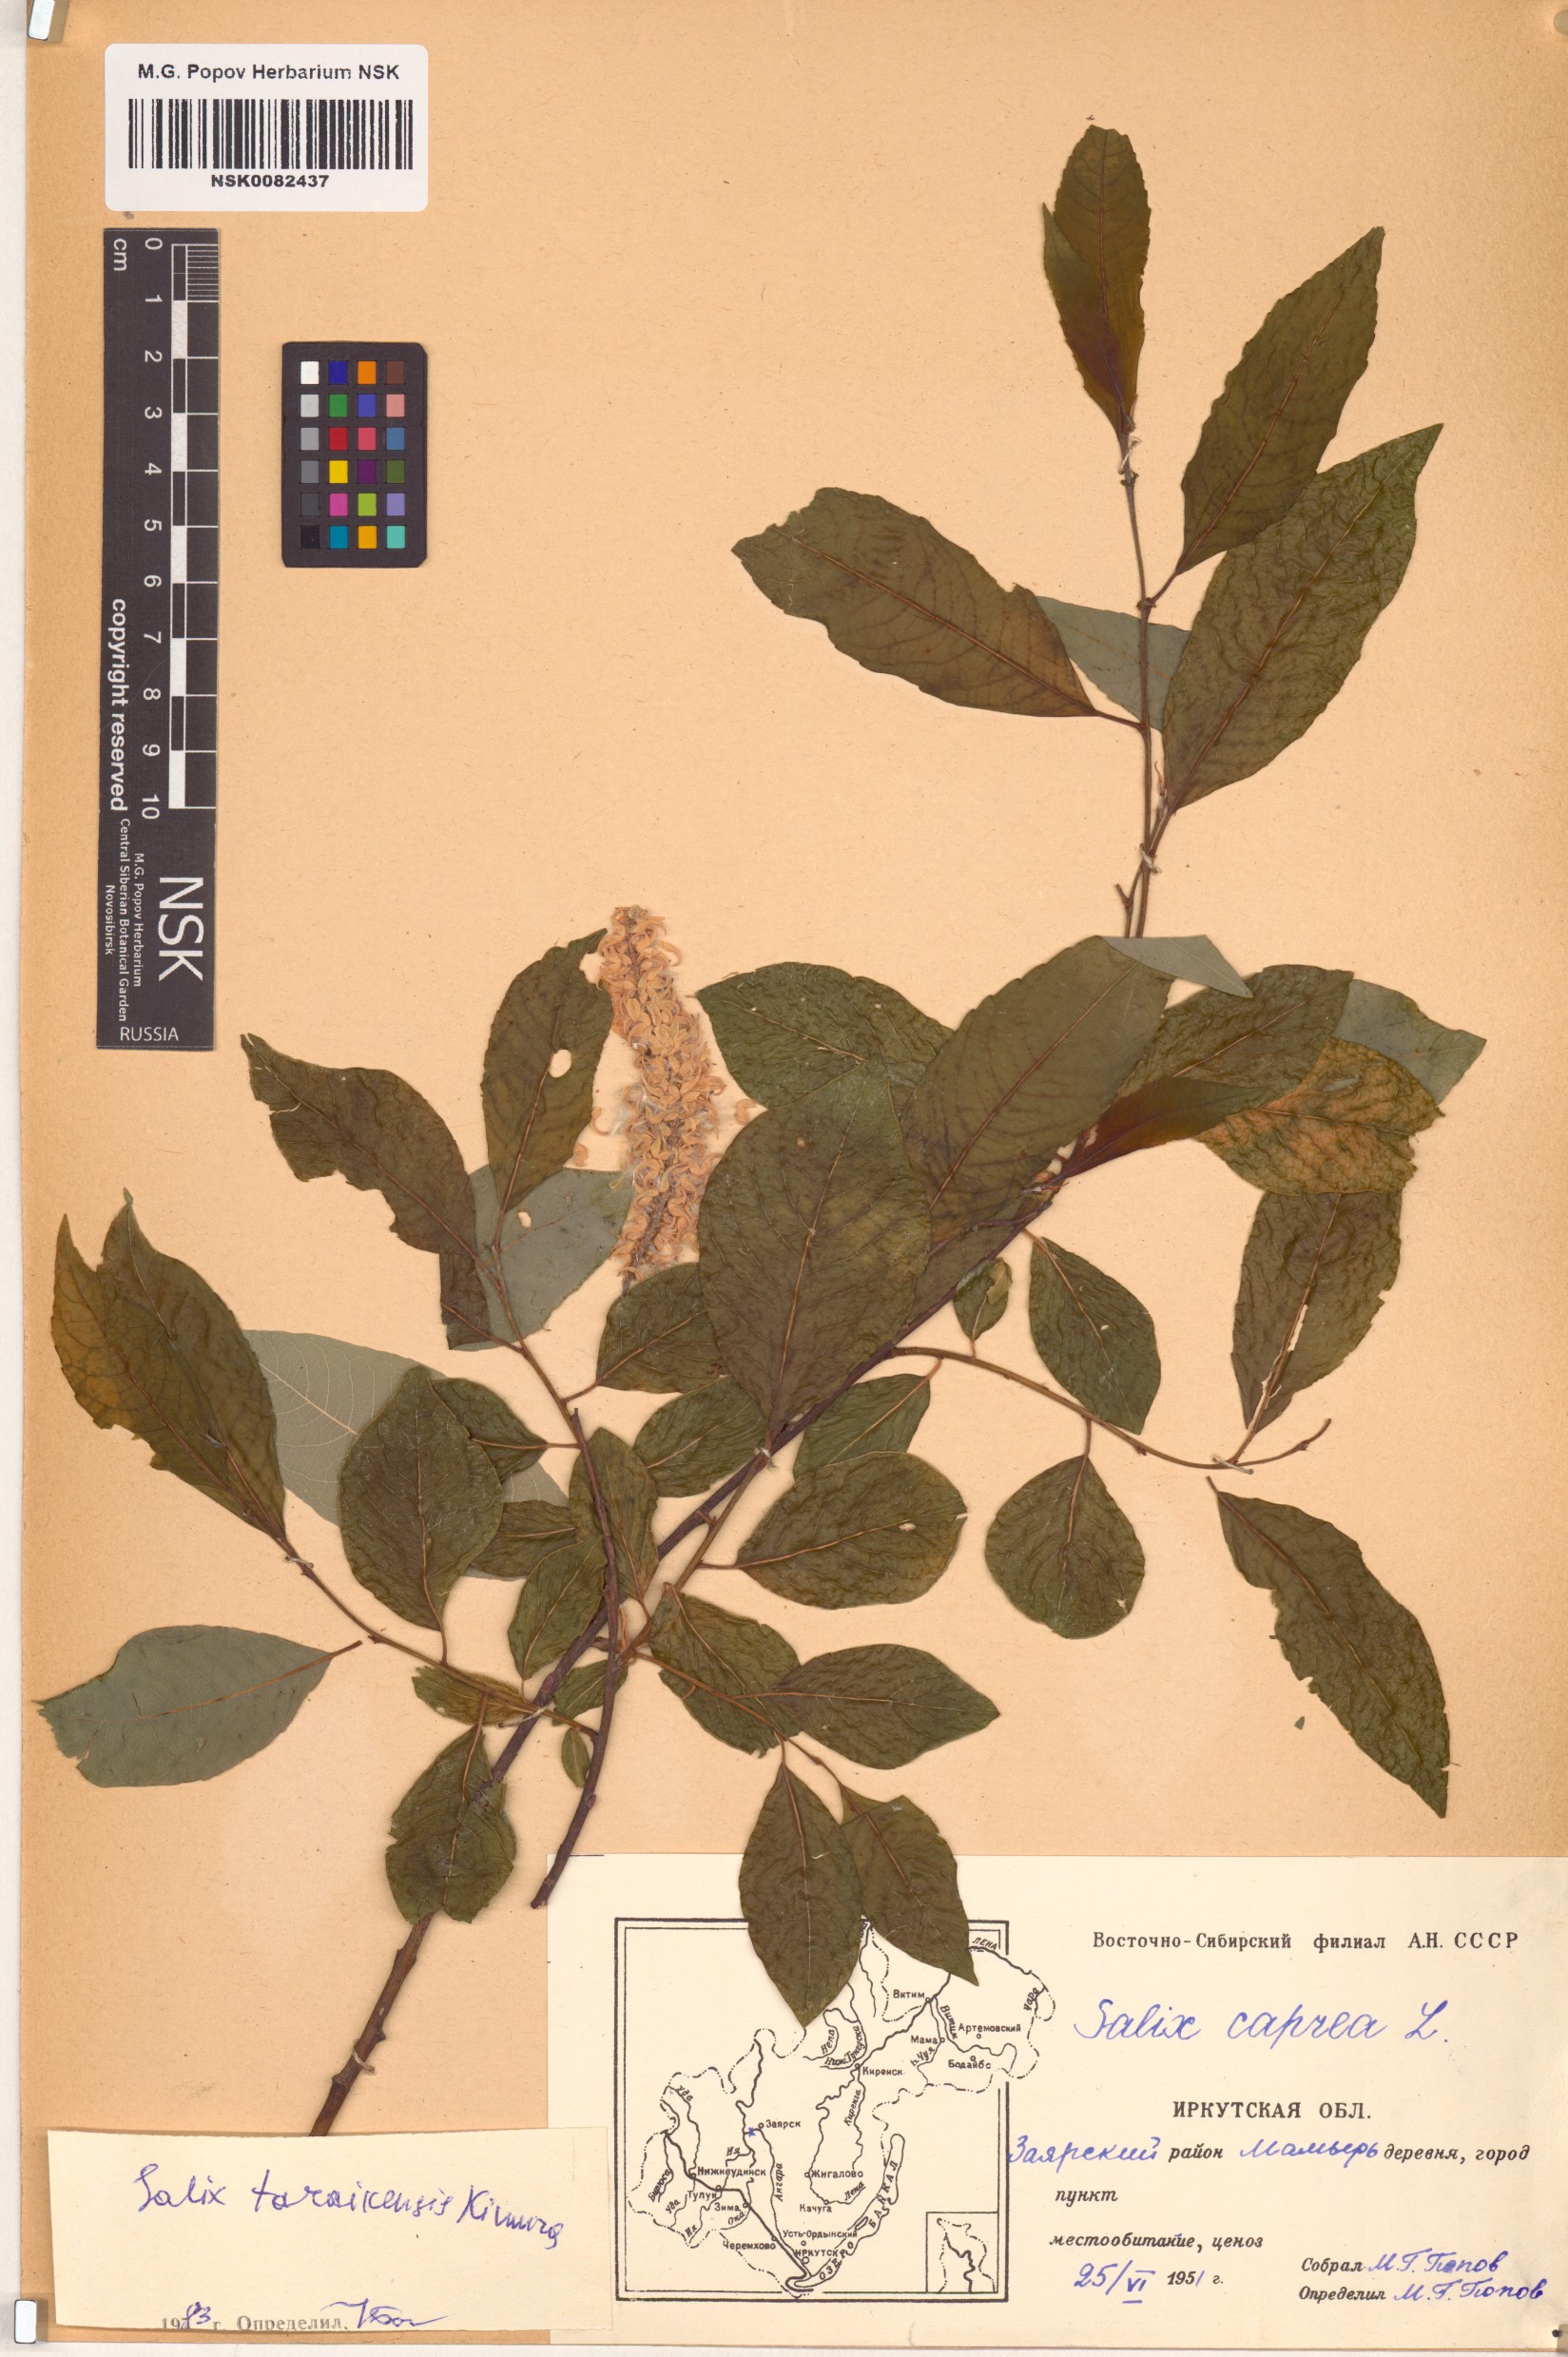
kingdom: Plantae
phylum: Tracheophyta
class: Magnoliopsida
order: Malpighiales
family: Salicaceae
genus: Salix
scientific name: Salix taraikensis
